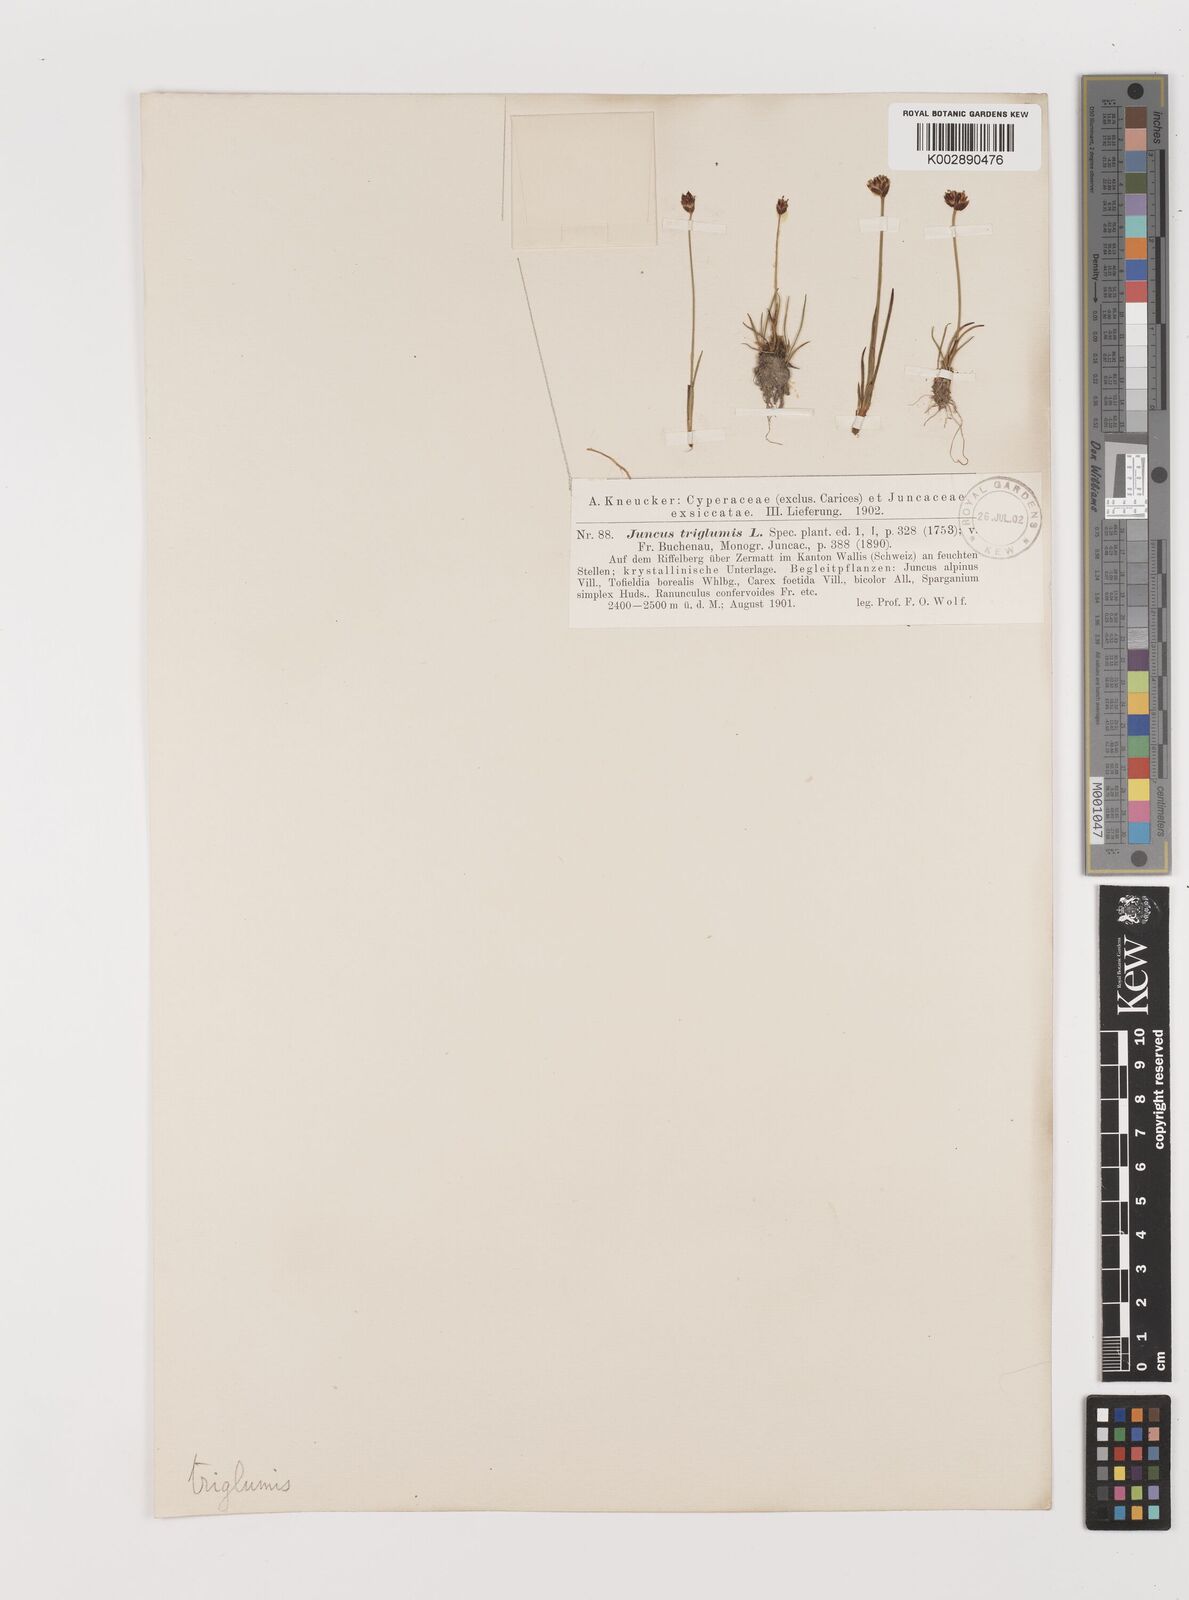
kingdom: Plantae
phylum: Tracheophyta
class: Liliopsida
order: Poales
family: Juncaceae
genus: Juncus
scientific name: Juncus triglumis
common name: Three-flowered rush
